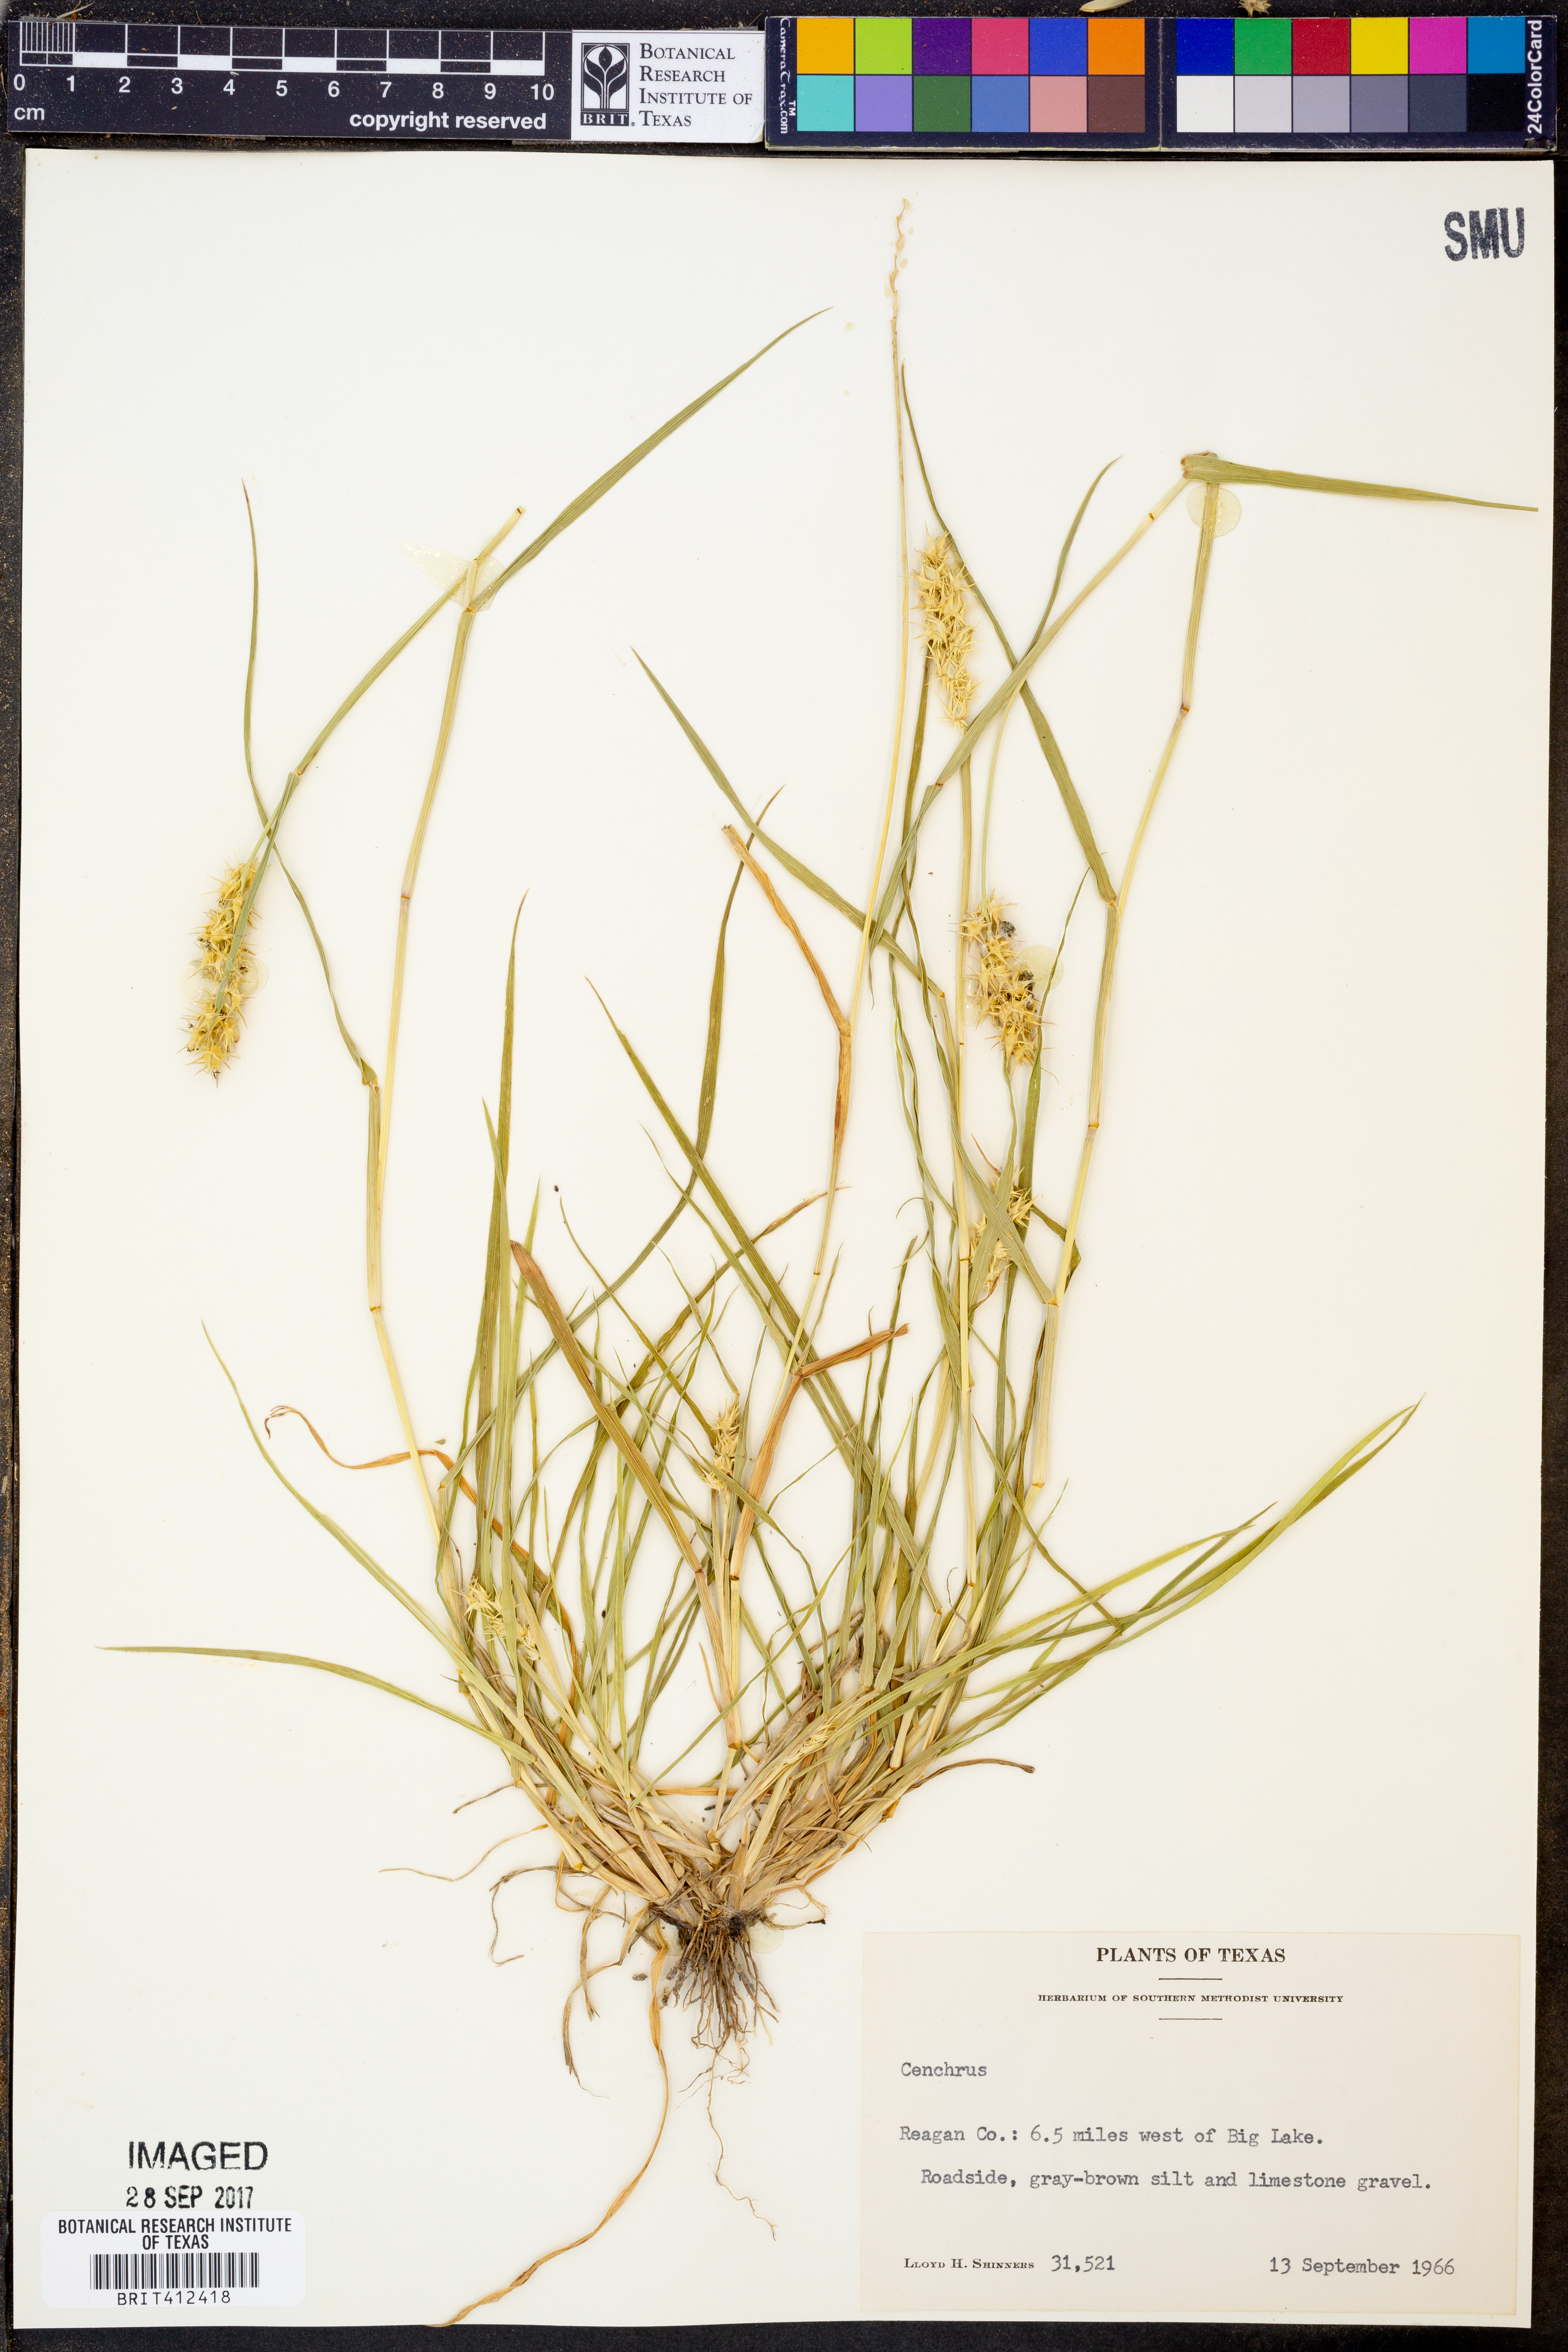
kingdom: Plantae
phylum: Tracheophyta
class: Liliopsida
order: Poales
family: Poaceae
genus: Cenchrus
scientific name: Cenchrus
